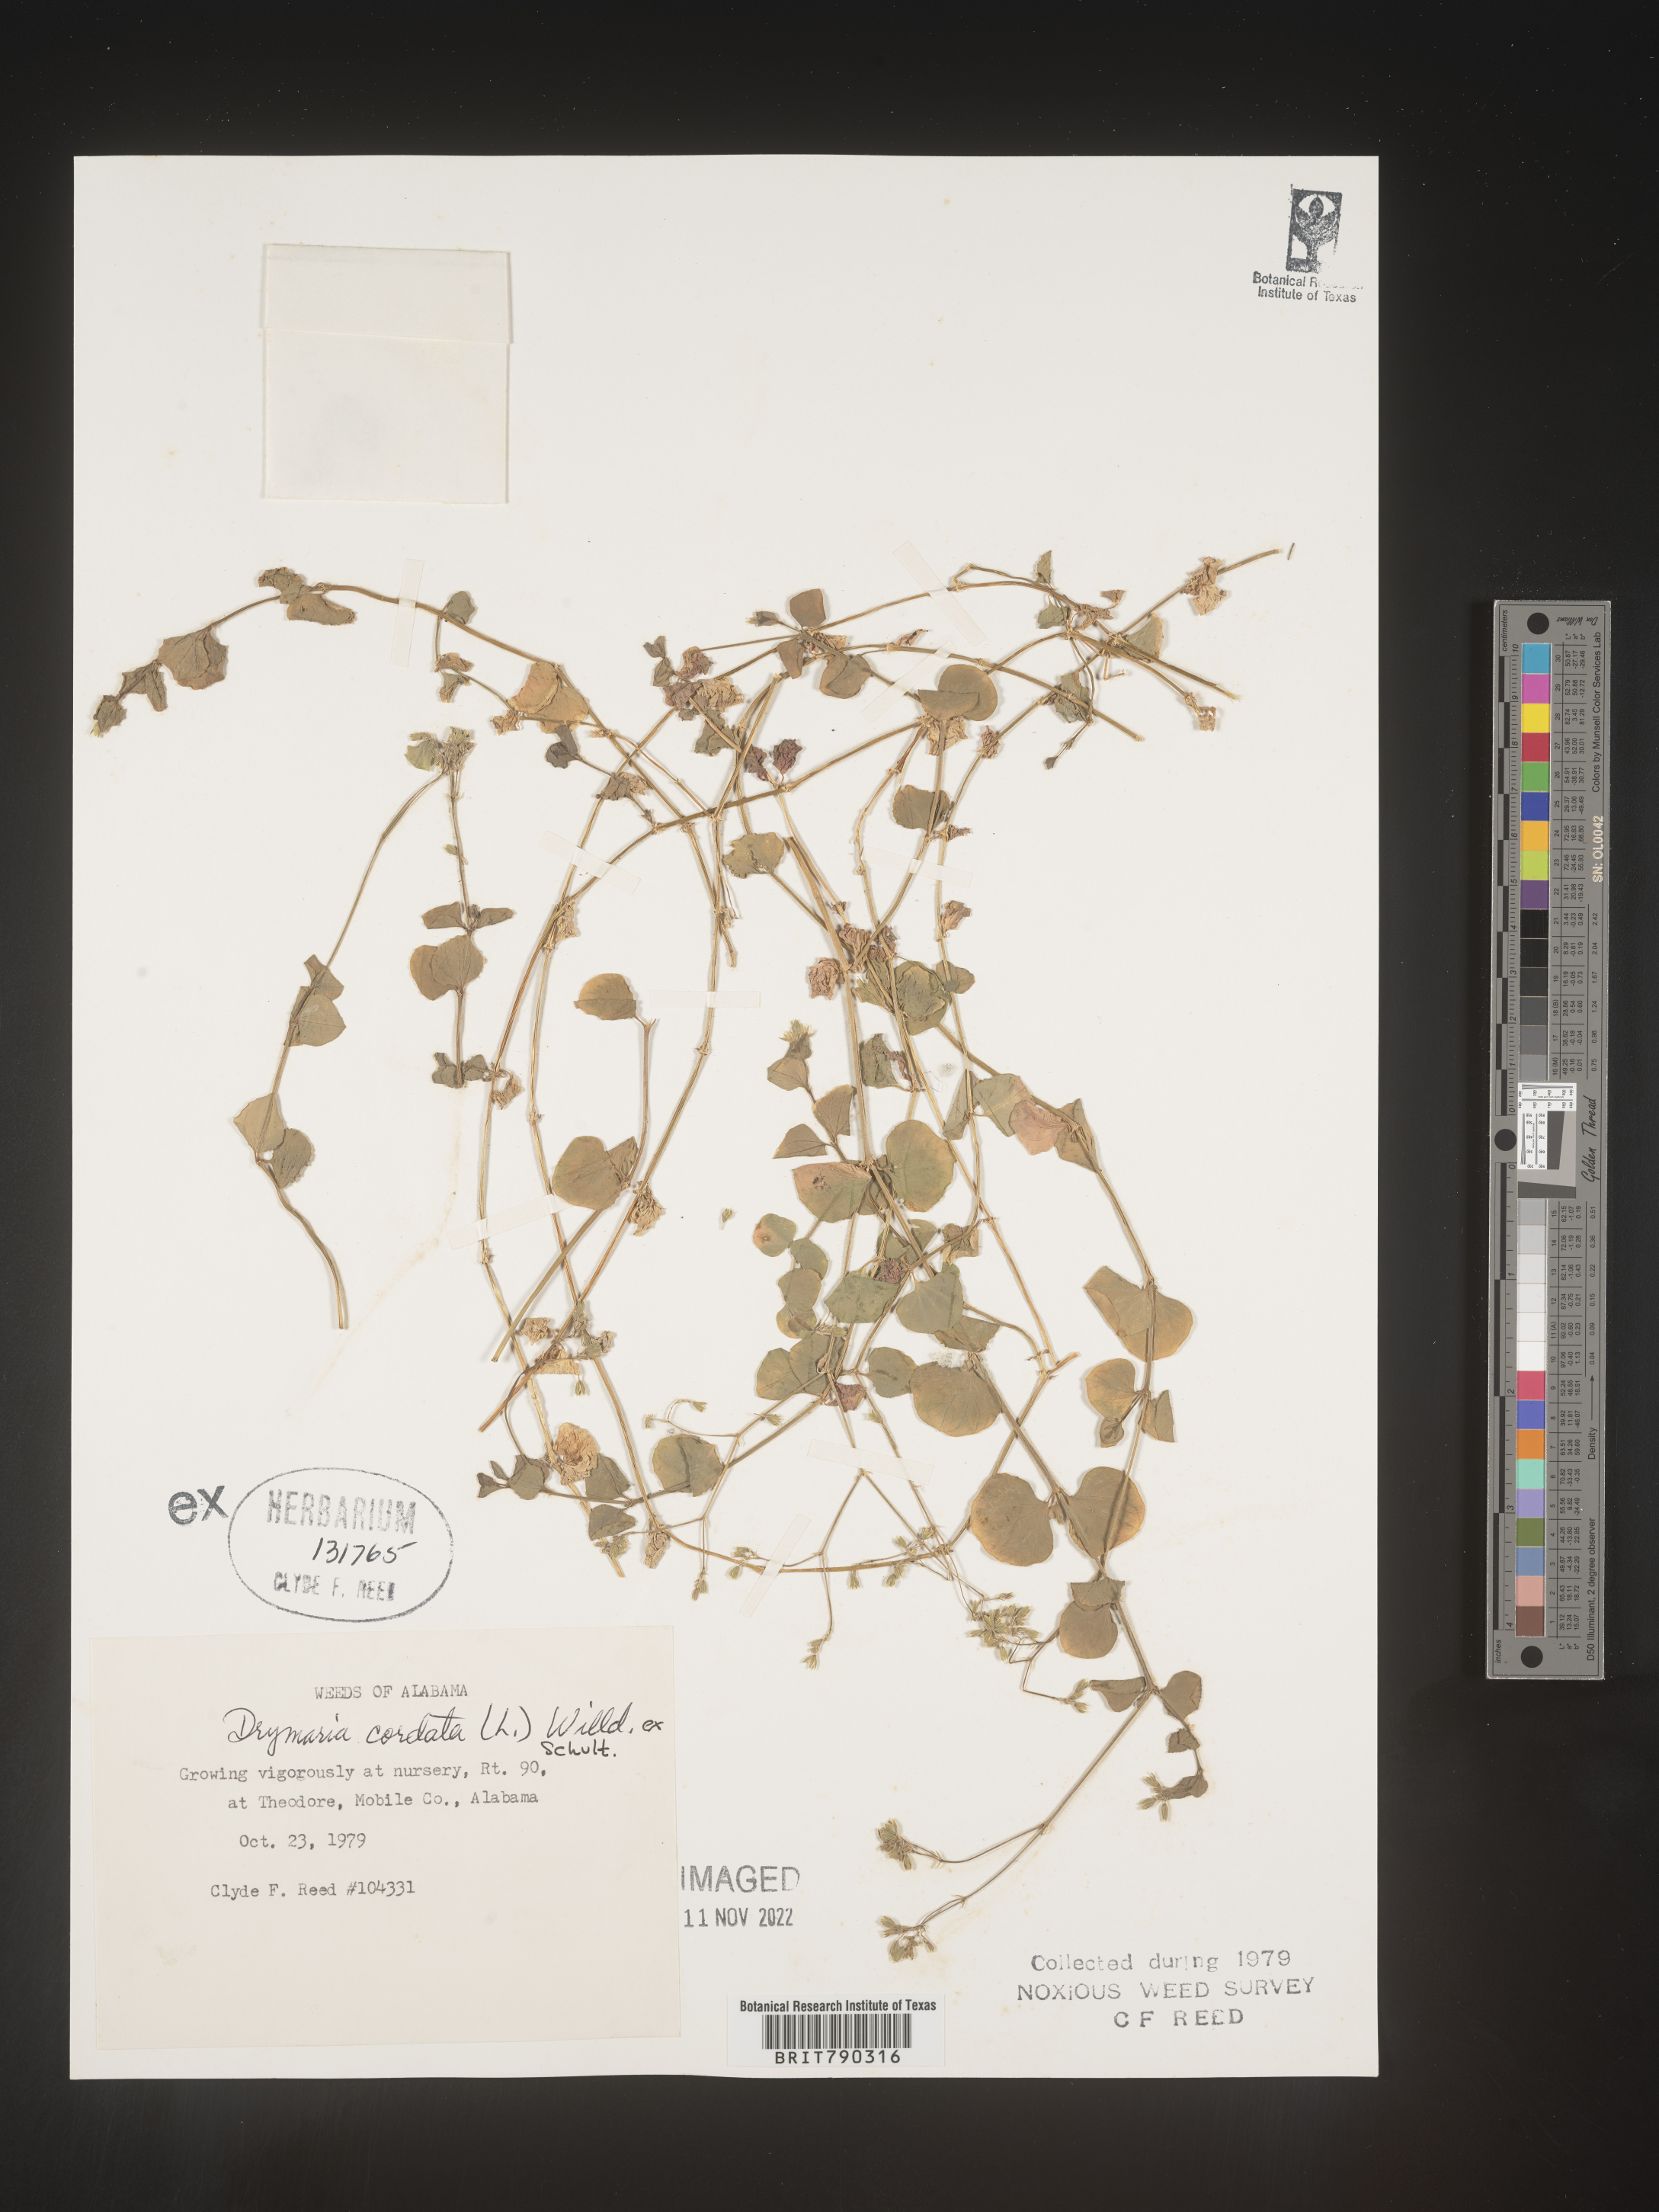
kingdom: Plantae
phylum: Tracheophyta
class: Magnoliopsida
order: Caryophyllales
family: Caryophyllaceae
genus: Drymaria
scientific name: Drymaria
